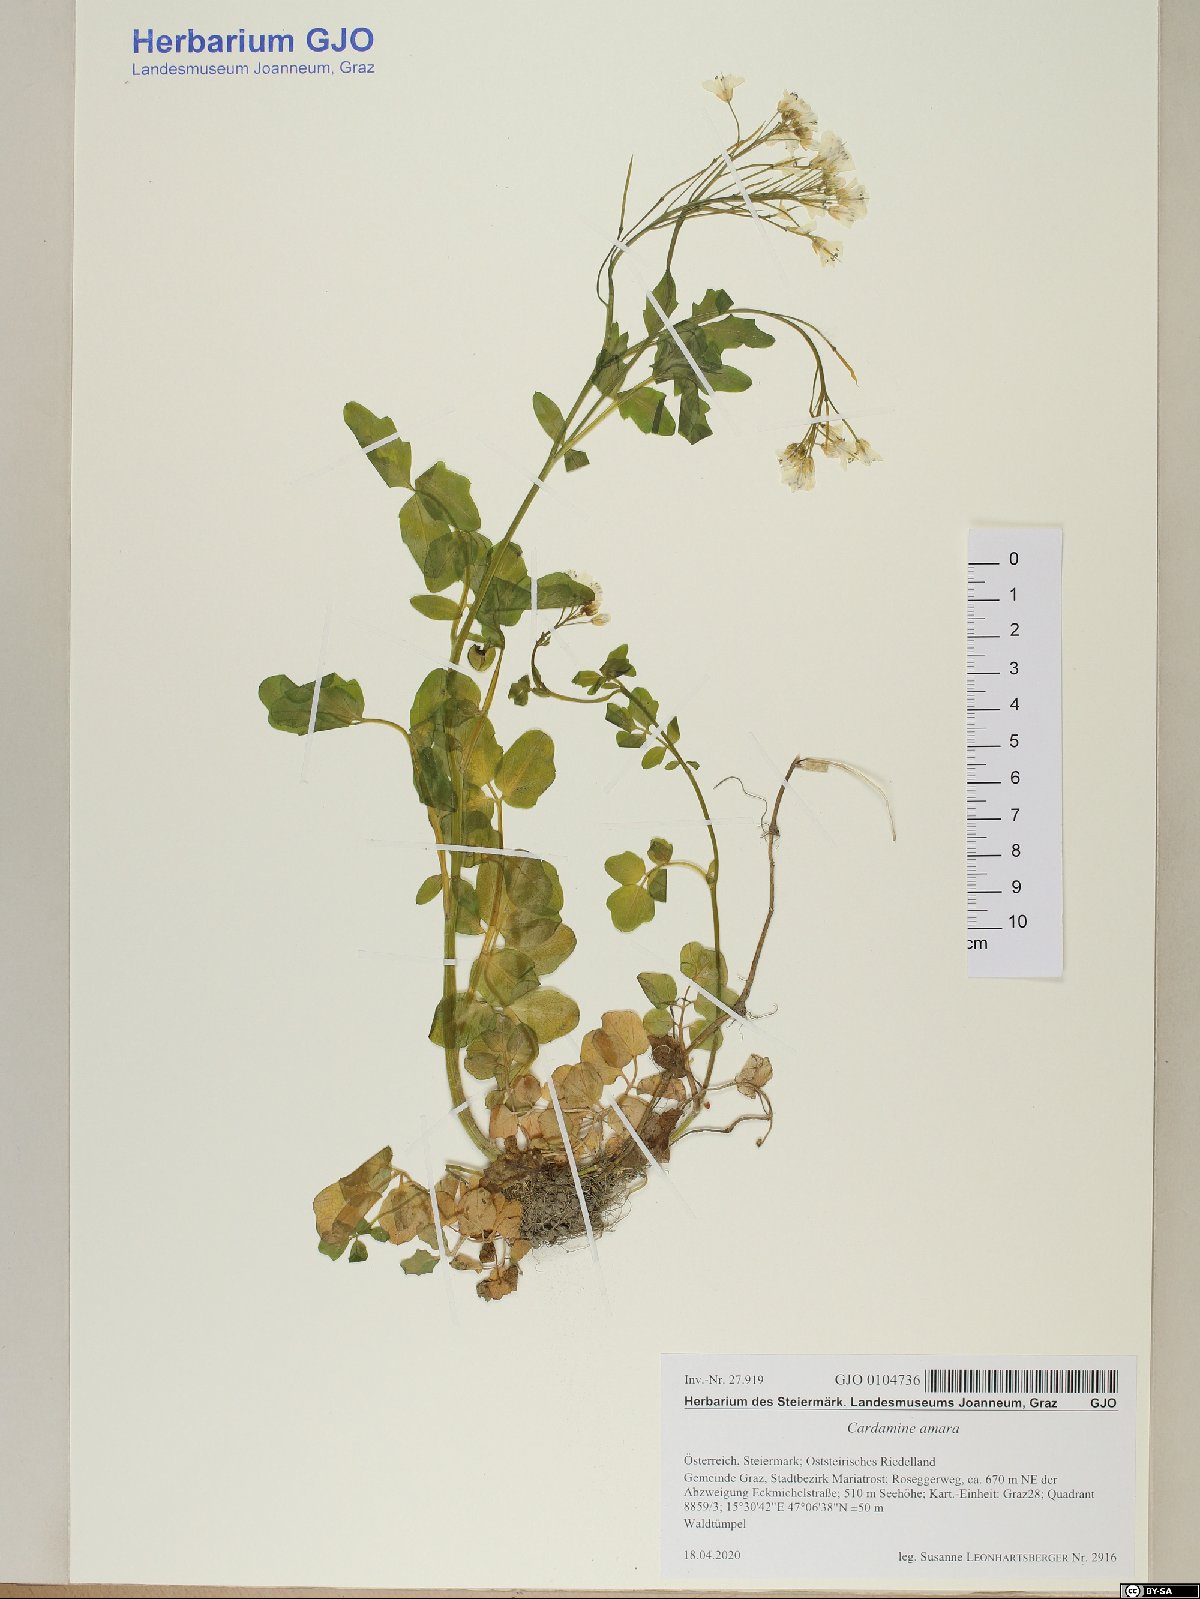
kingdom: Plantae
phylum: Tracheophyta
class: Magnoliopsida
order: Brassicales
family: Brassicaceae
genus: Cardamine
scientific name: Cardamine amara
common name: Large bitter-cress
